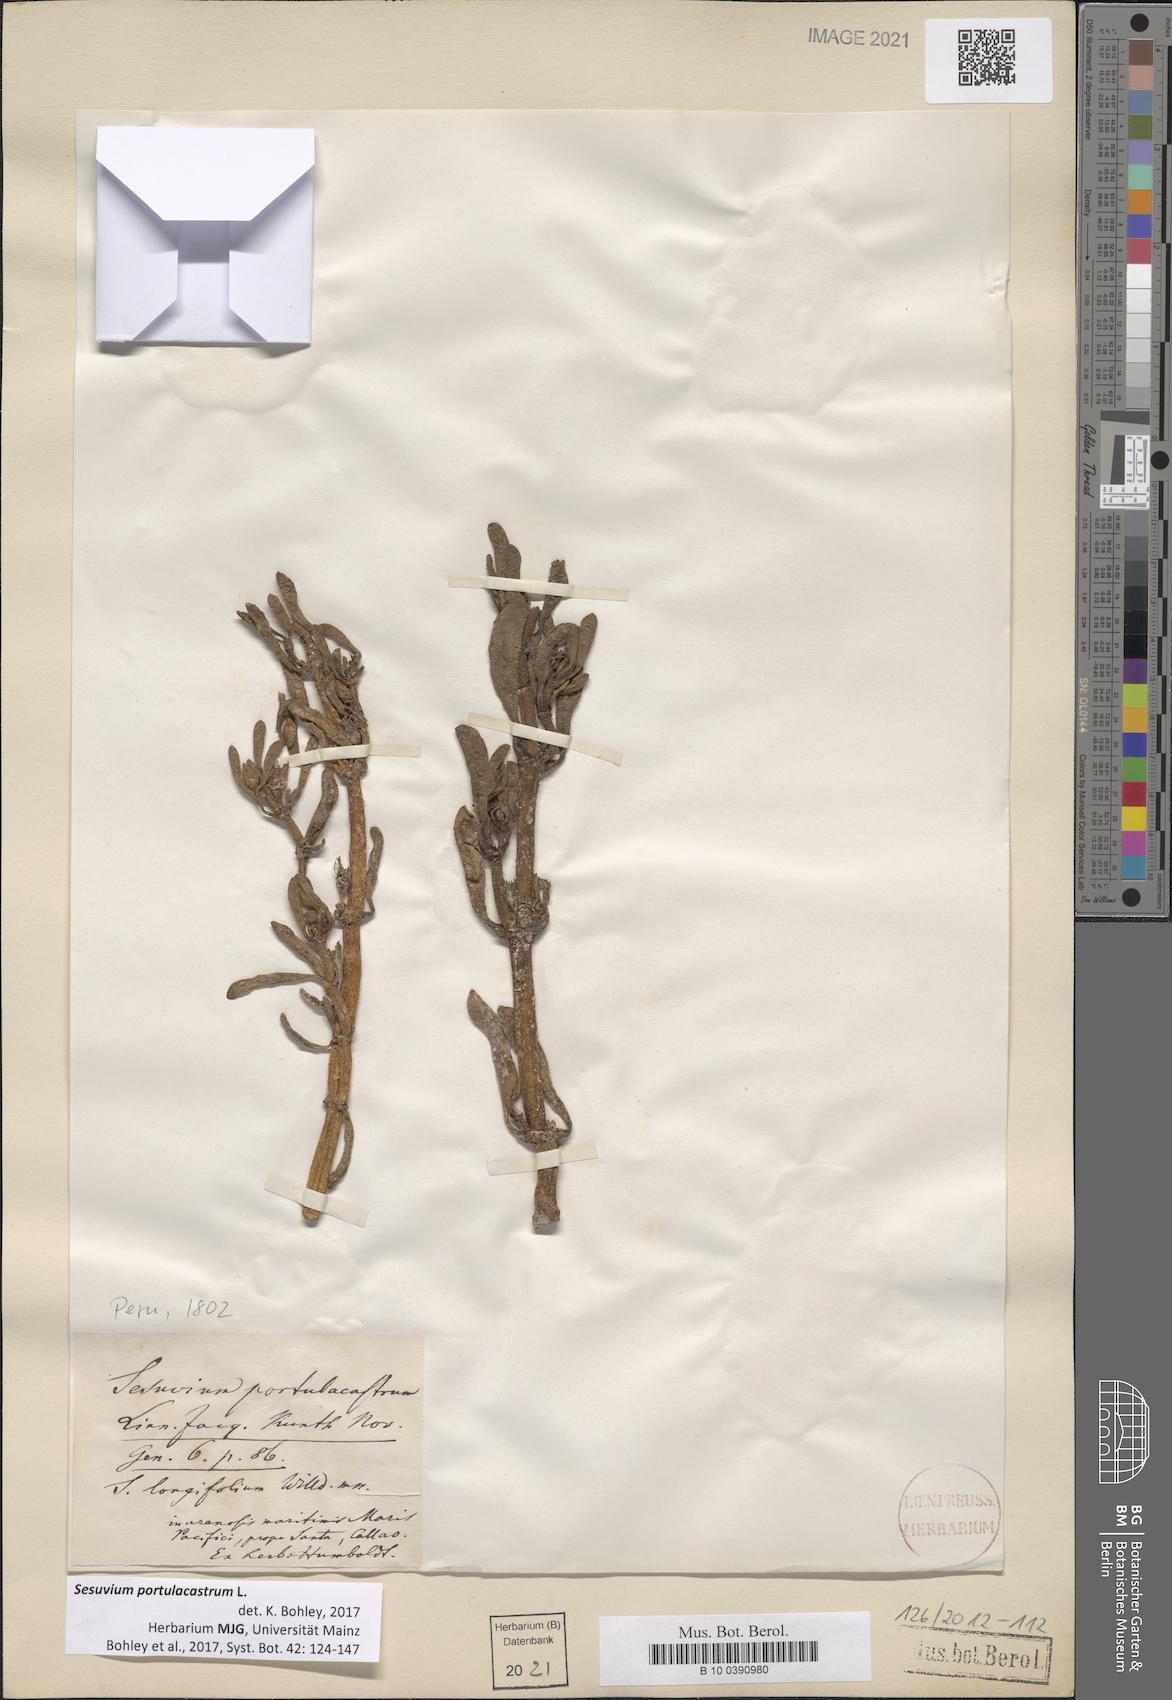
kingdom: Plantae
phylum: Tracheophyta
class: Magnoliopsida
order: Caryophyllales
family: Aizoaceae
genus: Sesuvium
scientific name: Sesuvium portulacastrum
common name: Sea-purslane
